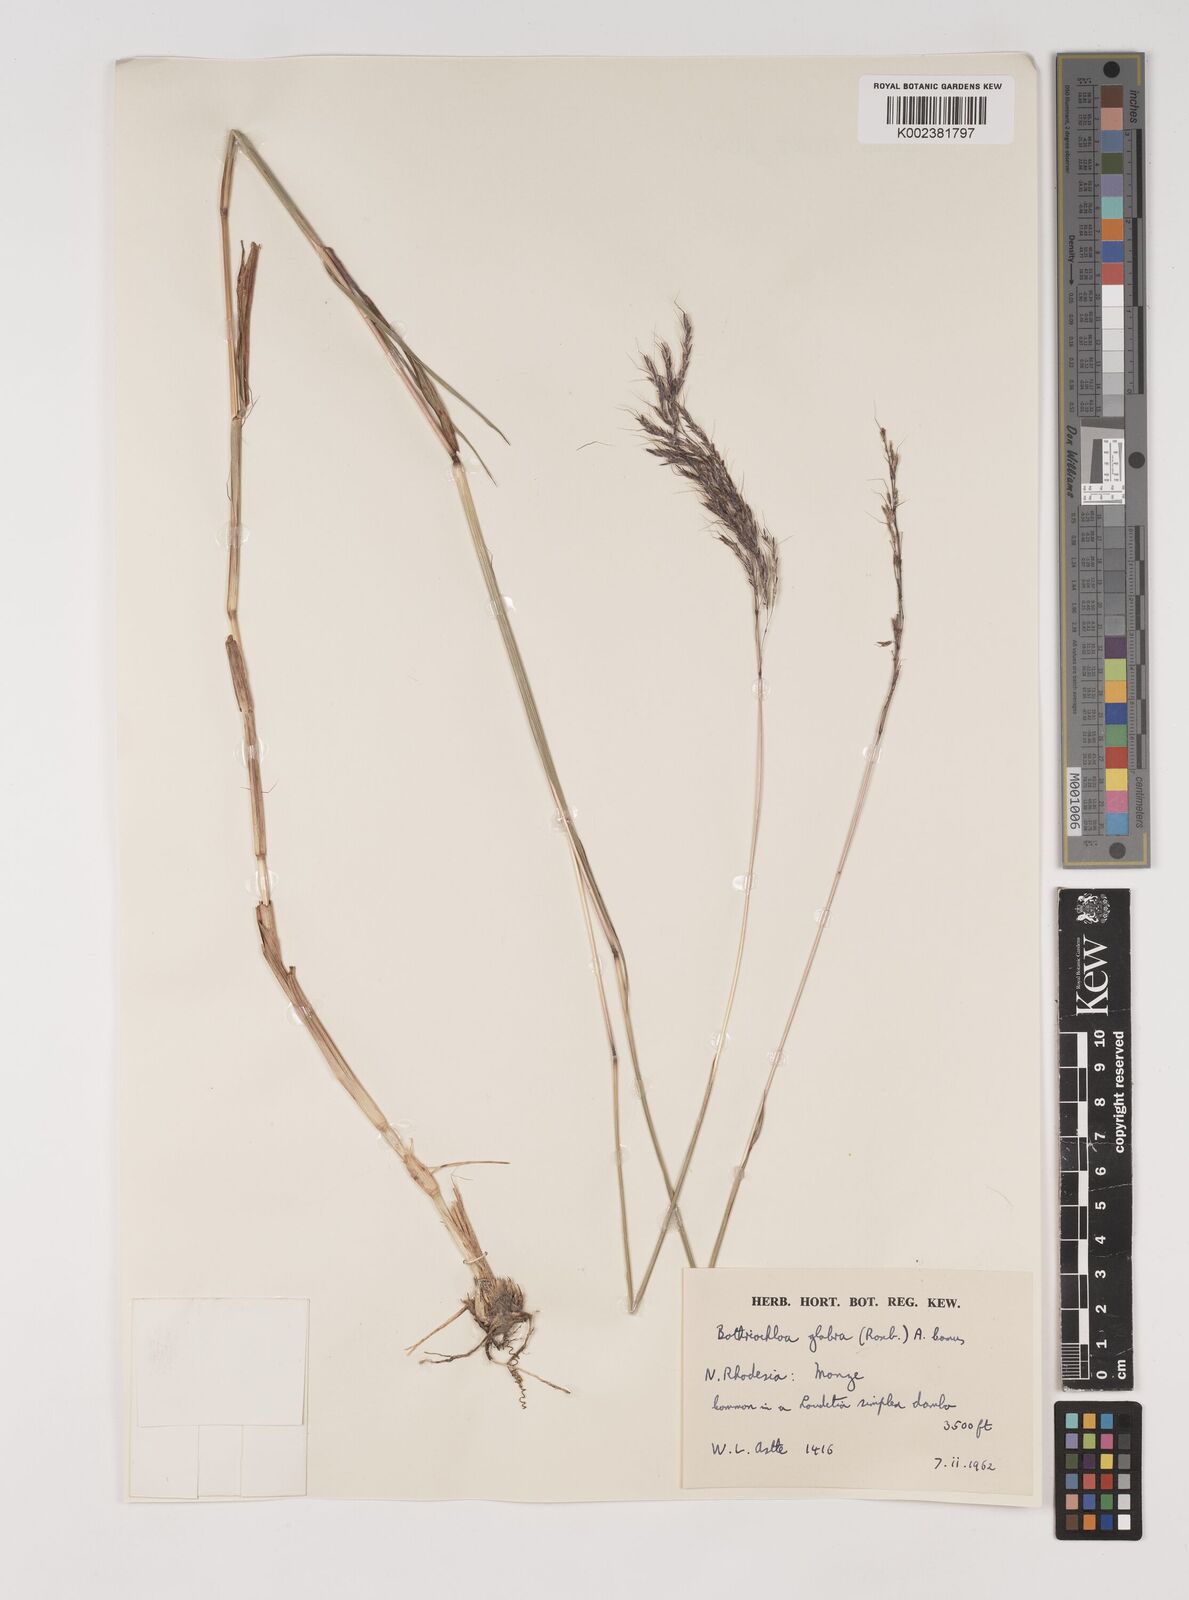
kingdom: Plantae
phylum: Tracheophyta
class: Liliopsida
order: Poales
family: Poaceae
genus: Bothriochloa
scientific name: Bothriochloa bladhii
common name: Caucasian bluestem
